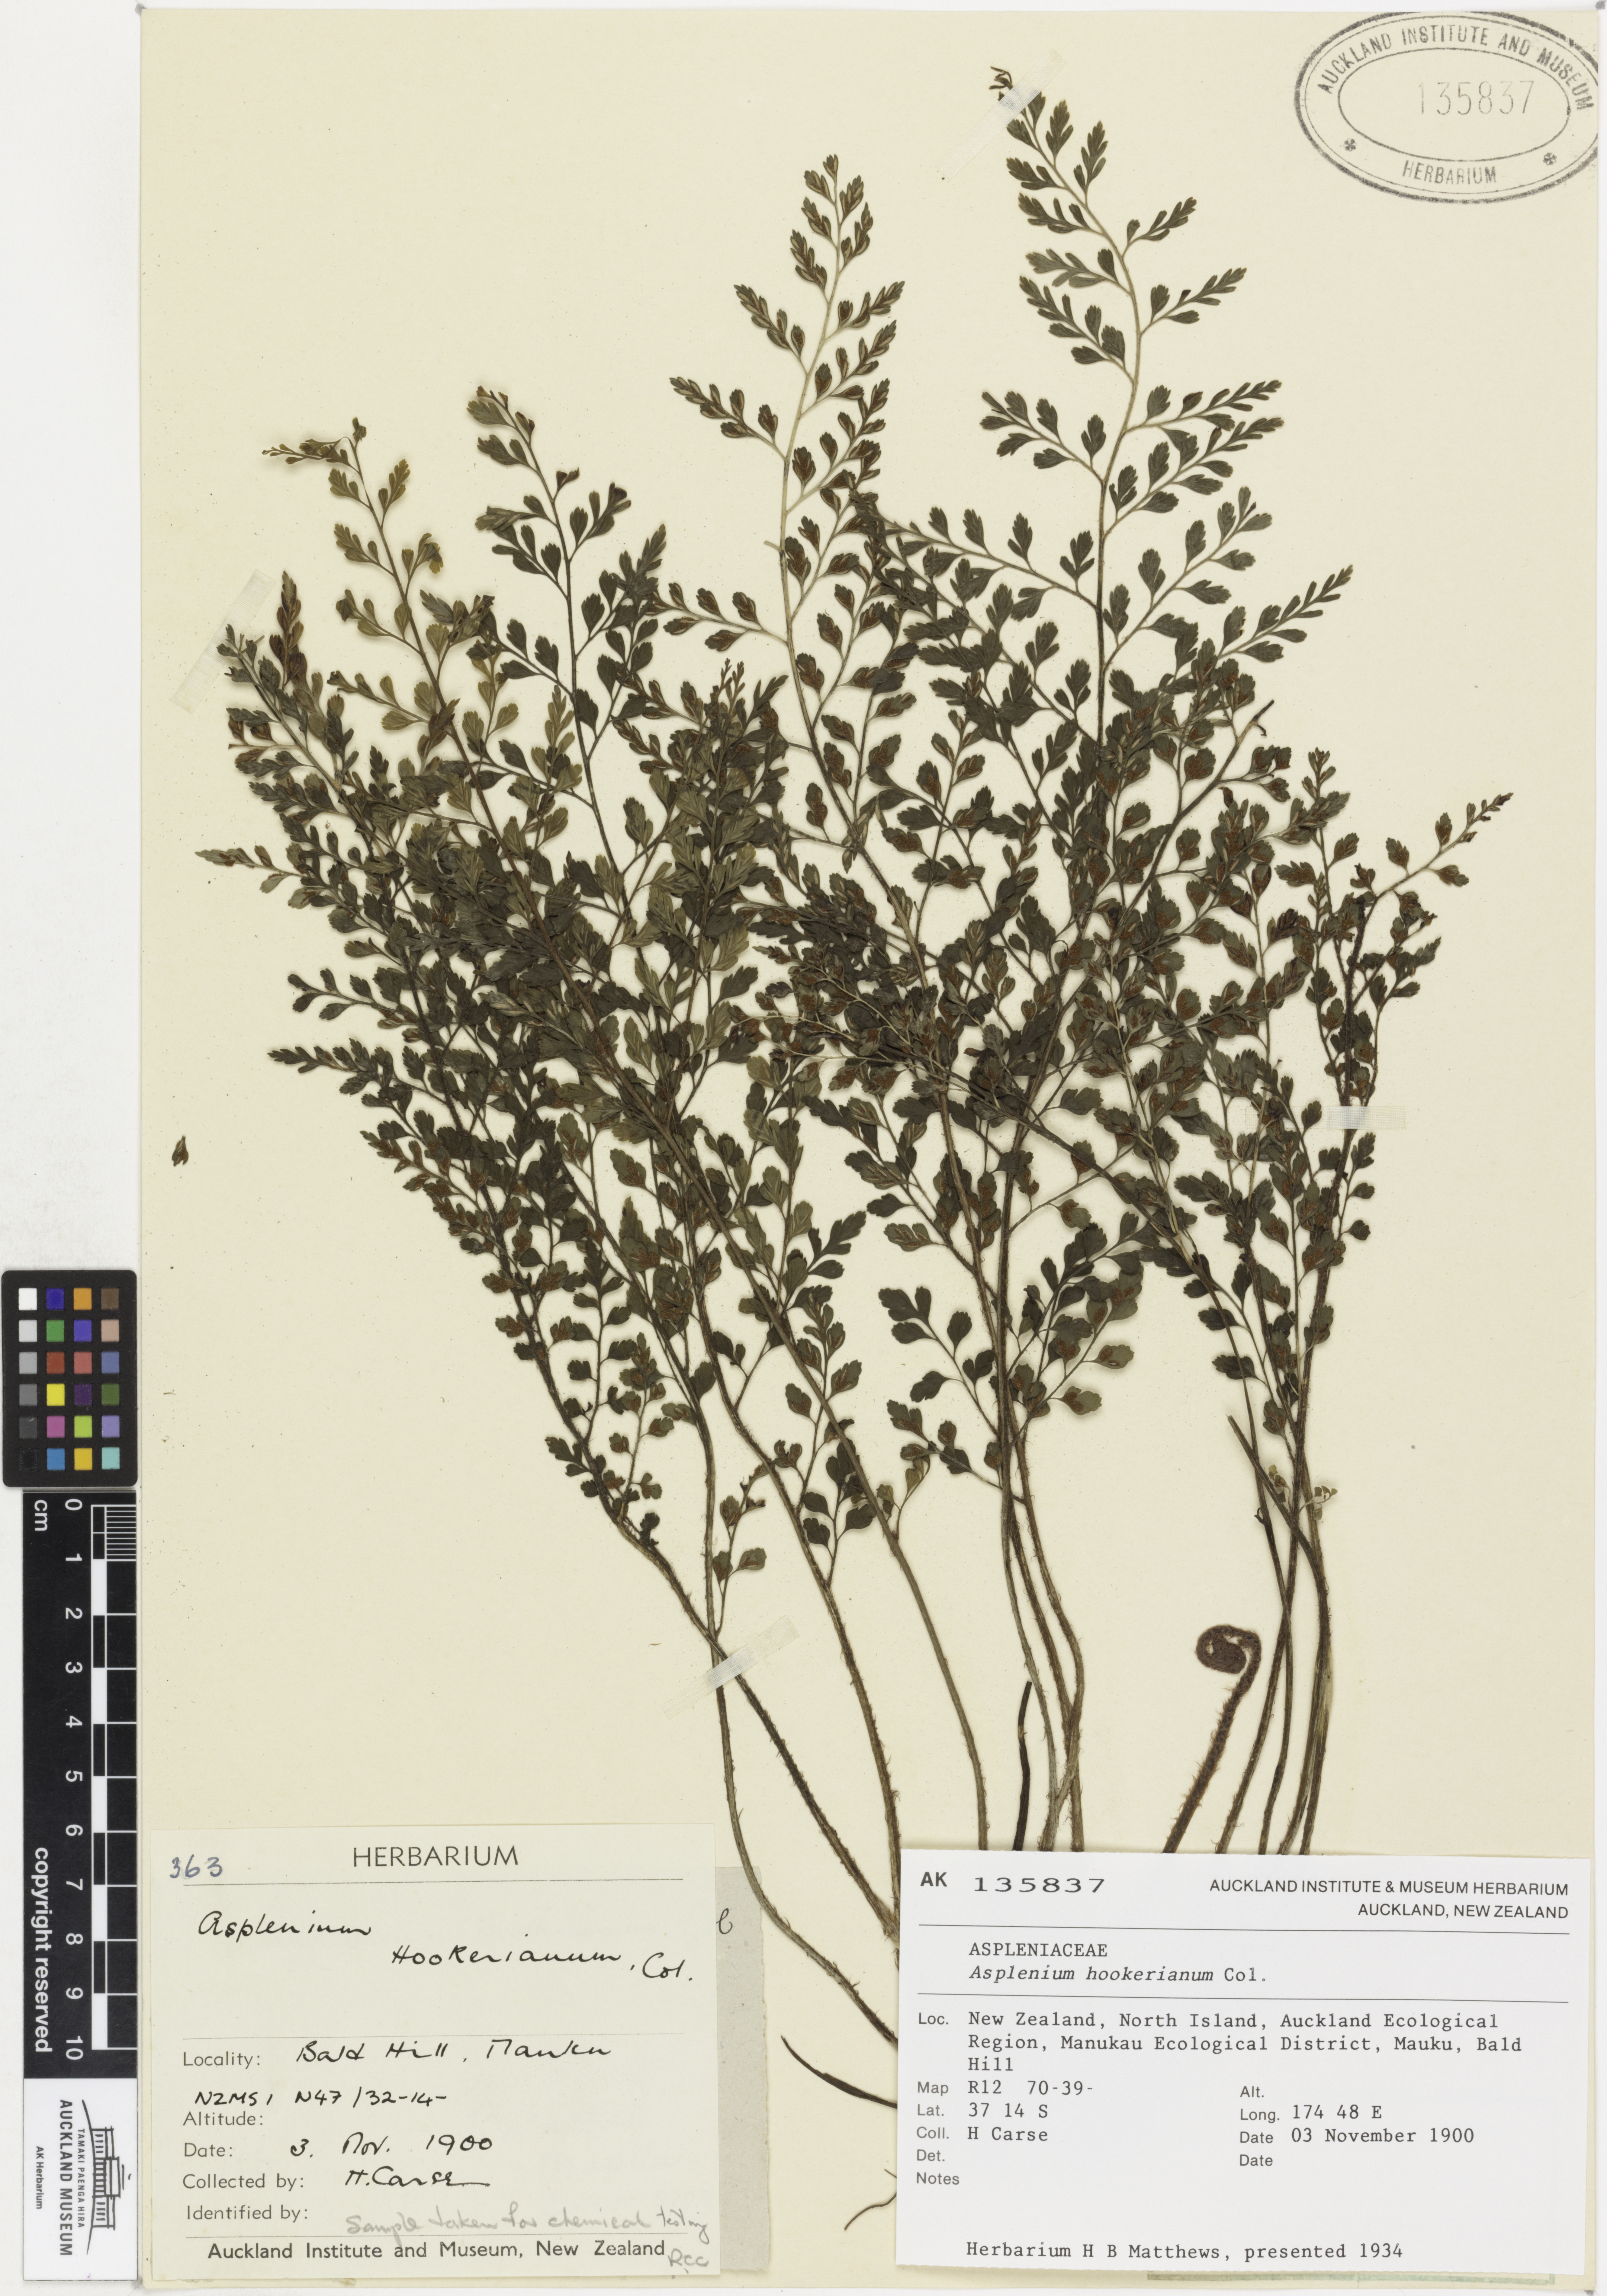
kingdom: Plantae
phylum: Tracheophyta
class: Polypodiopsida
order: Polypodiales
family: Aspleniaceae
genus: Asplenium
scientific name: Asplenium hookerianum
